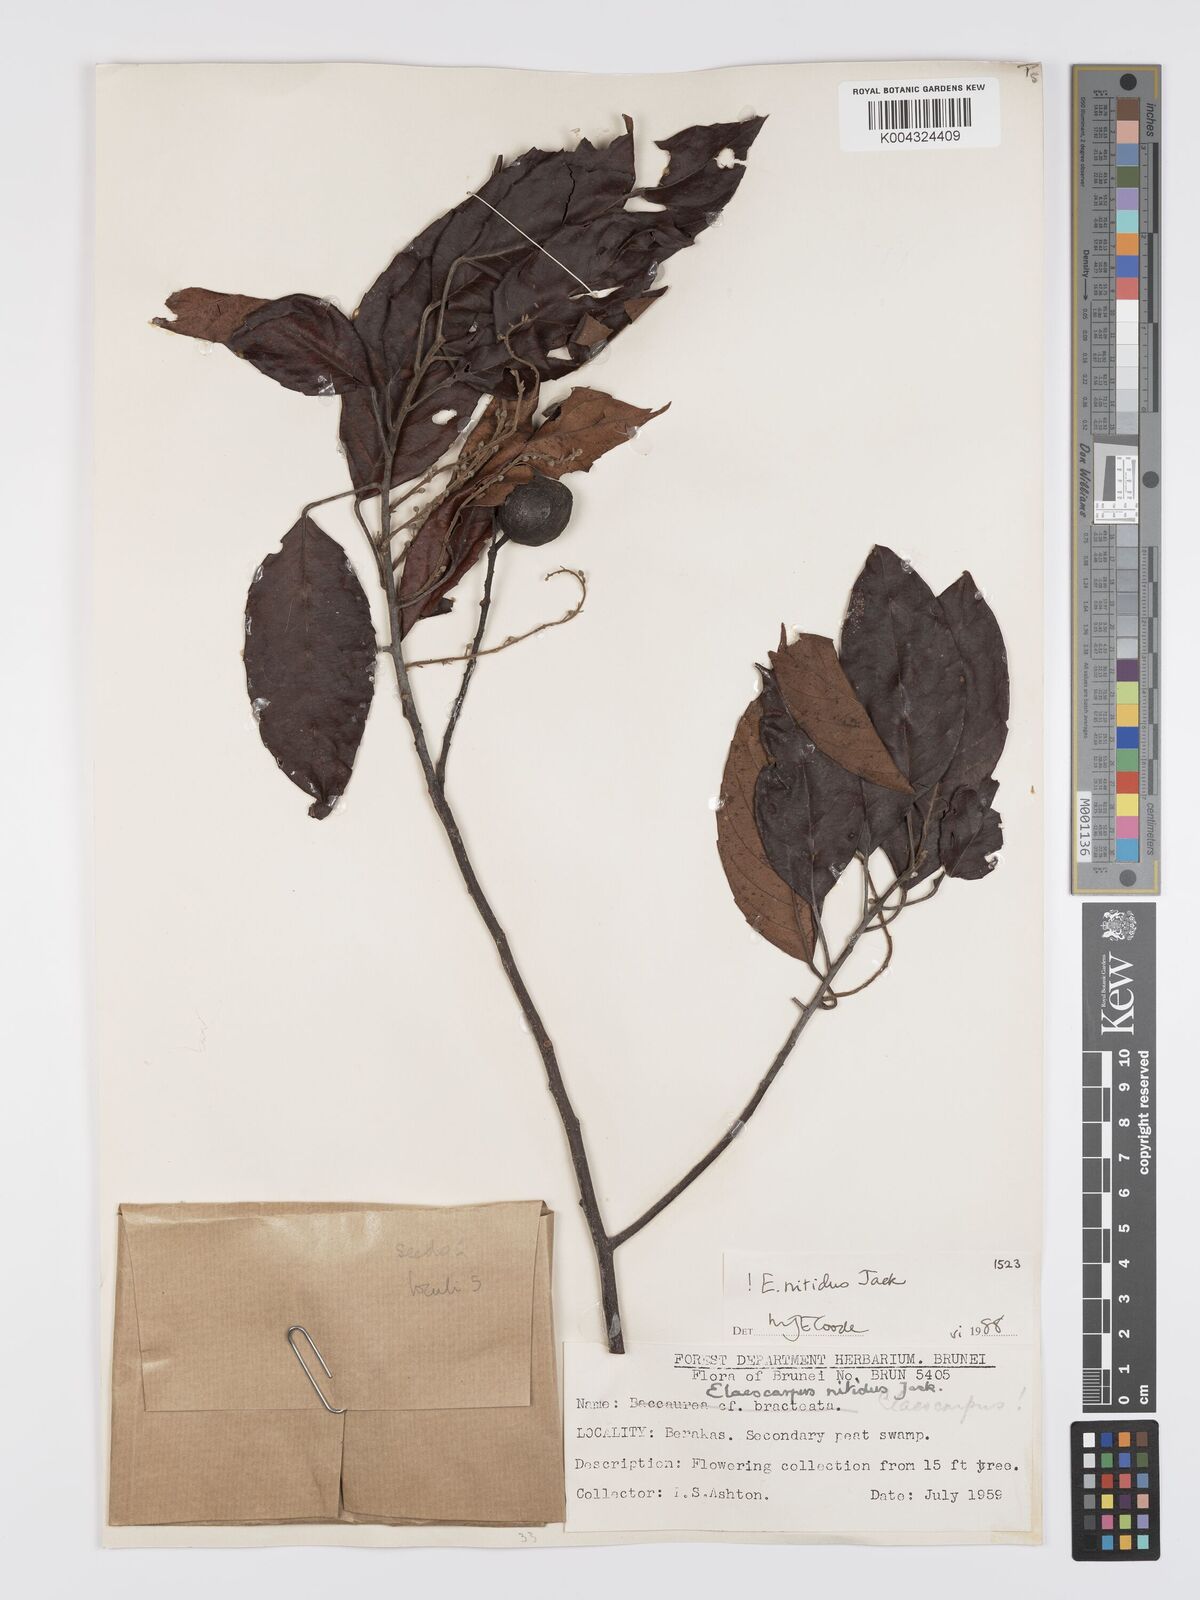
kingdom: Plantae
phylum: Tracheophyta
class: Magnoliopsida
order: Oxalidales
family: Elaeocarpaceae
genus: Elaeocarpus
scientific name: Elaeocarpus nitidus
